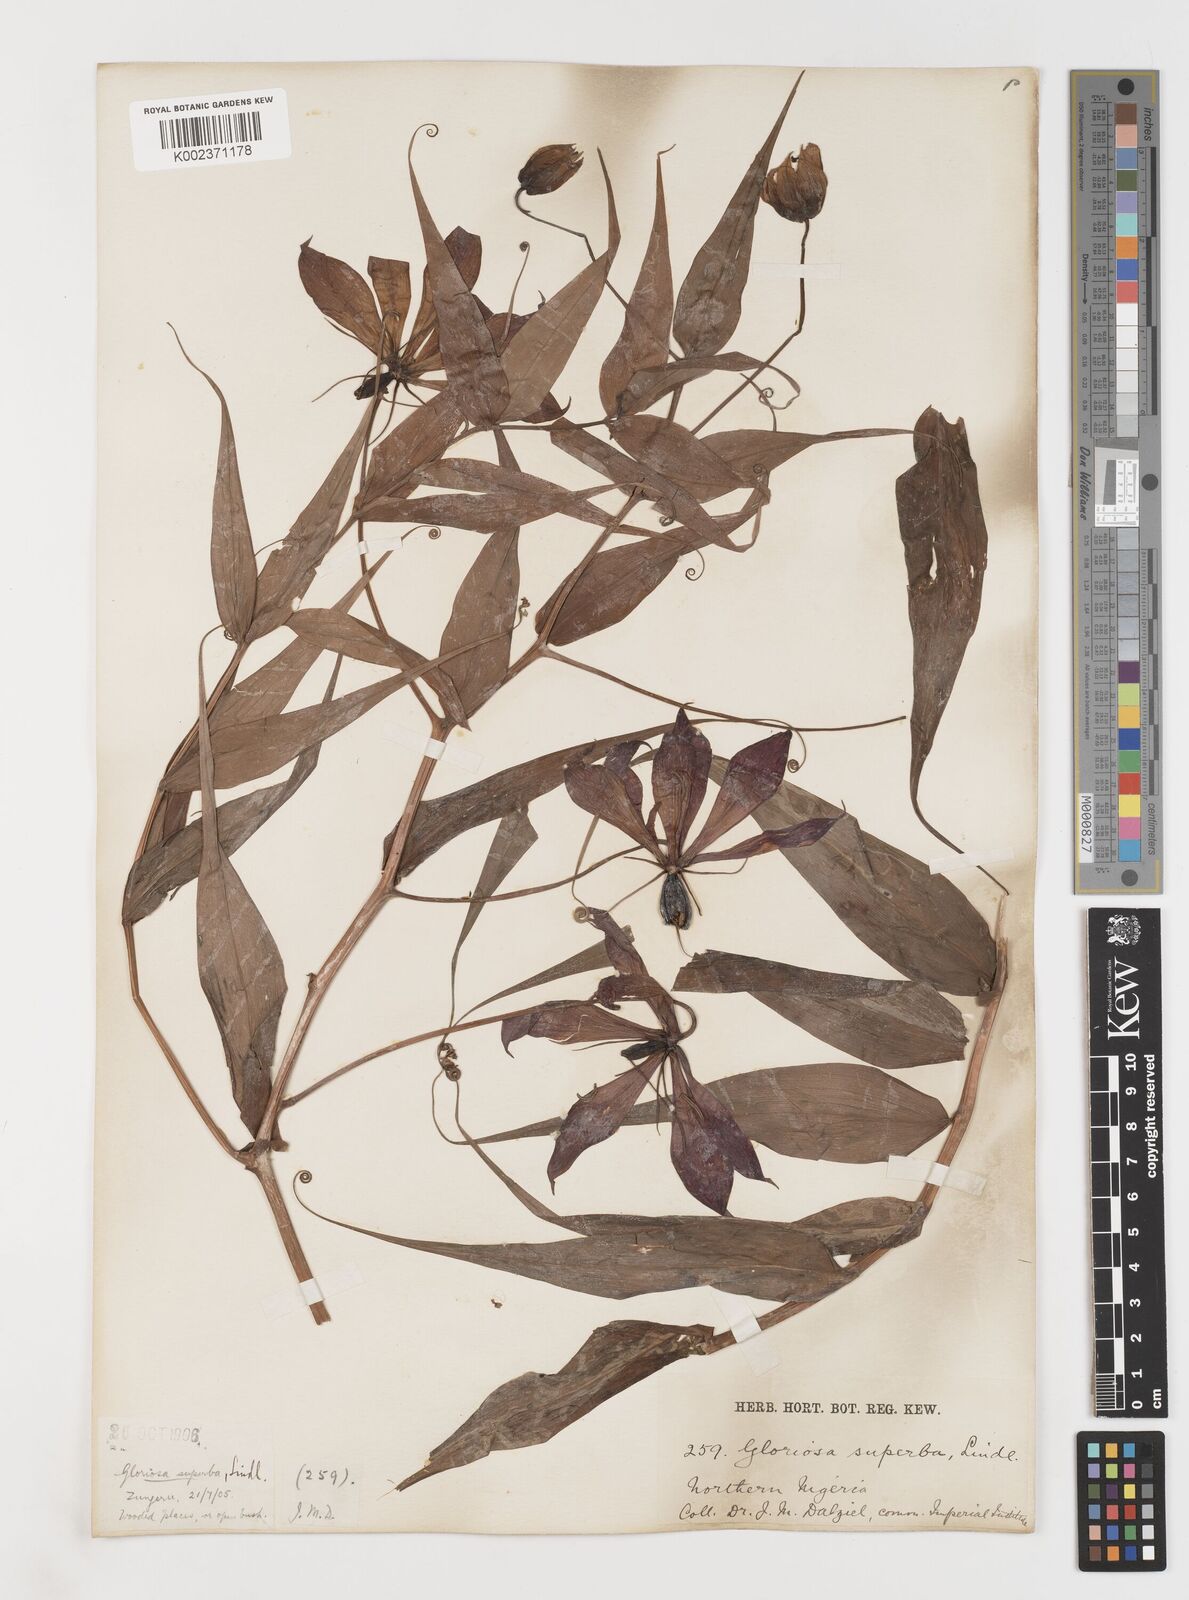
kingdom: Plantae
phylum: Tracheophyta
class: Liliopsida
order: Liliales
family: Colchicaceae
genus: Gloriosa
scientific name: Gloriosa simplex
